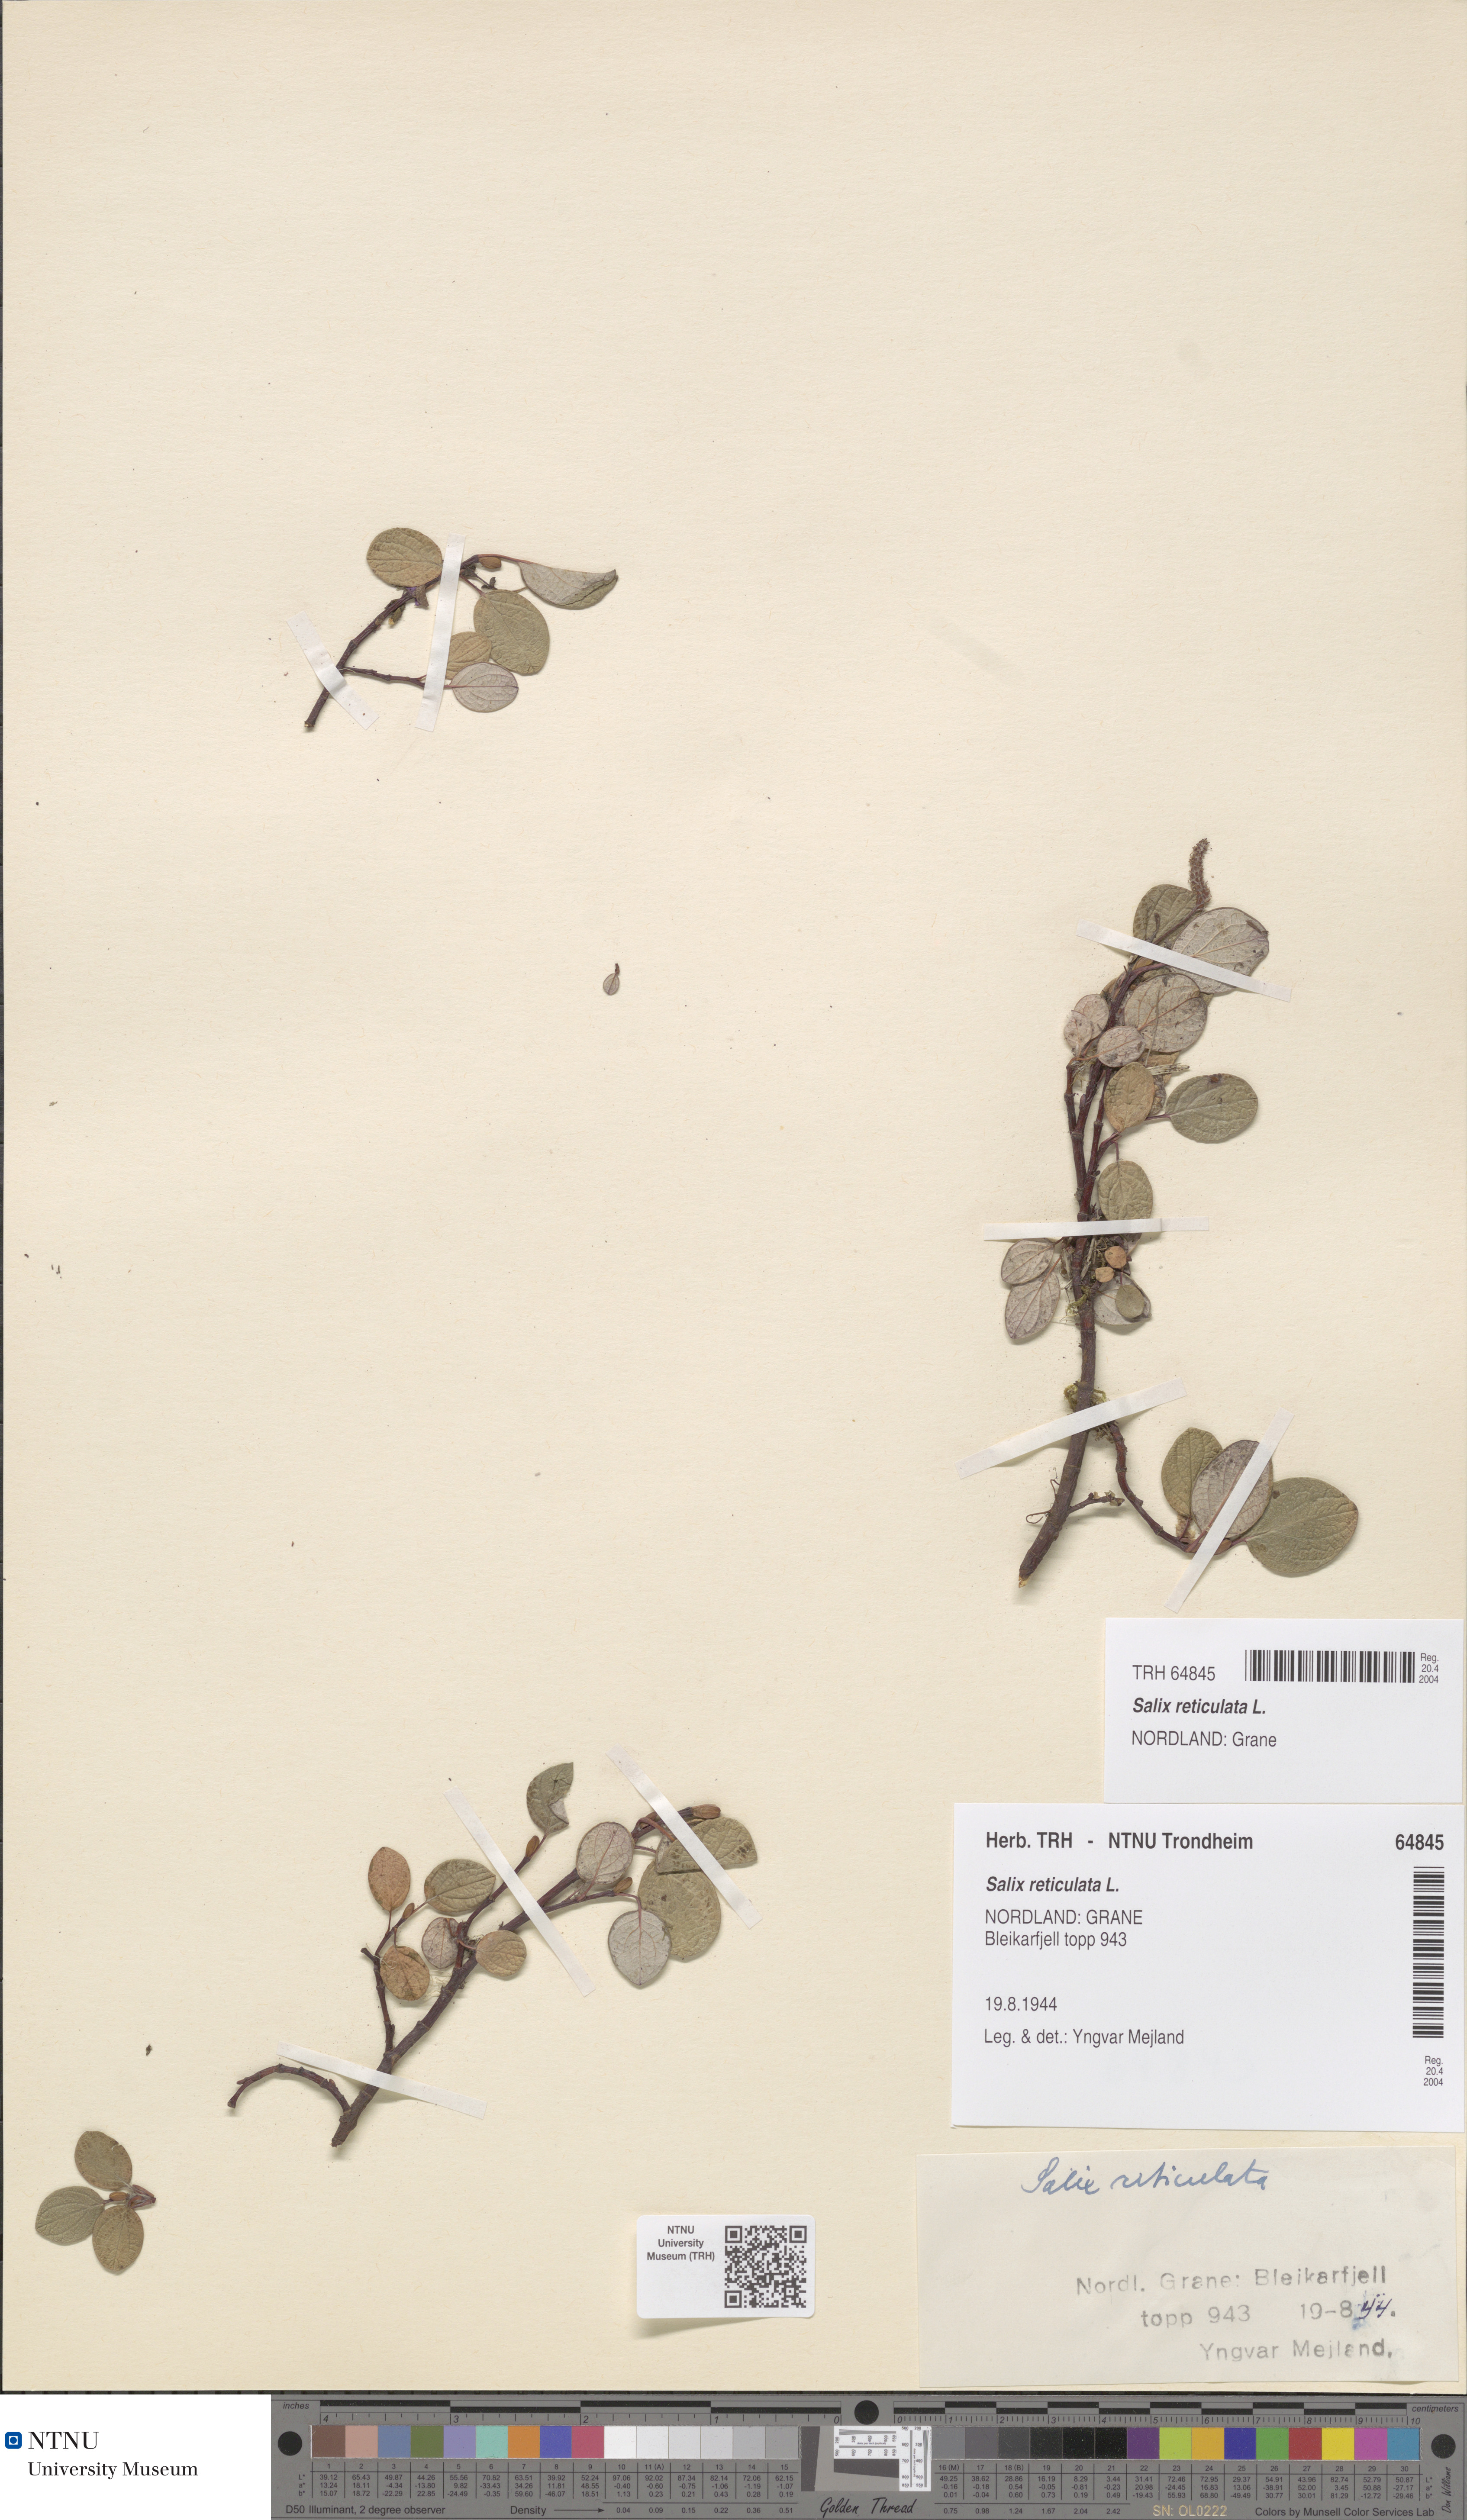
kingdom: Plantae
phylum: Tracheophyta
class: Magnoliopsida
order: Malpighiales
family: Salicaceae
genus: Salix
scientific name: Salix reticulata
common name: Net-leaved willow
